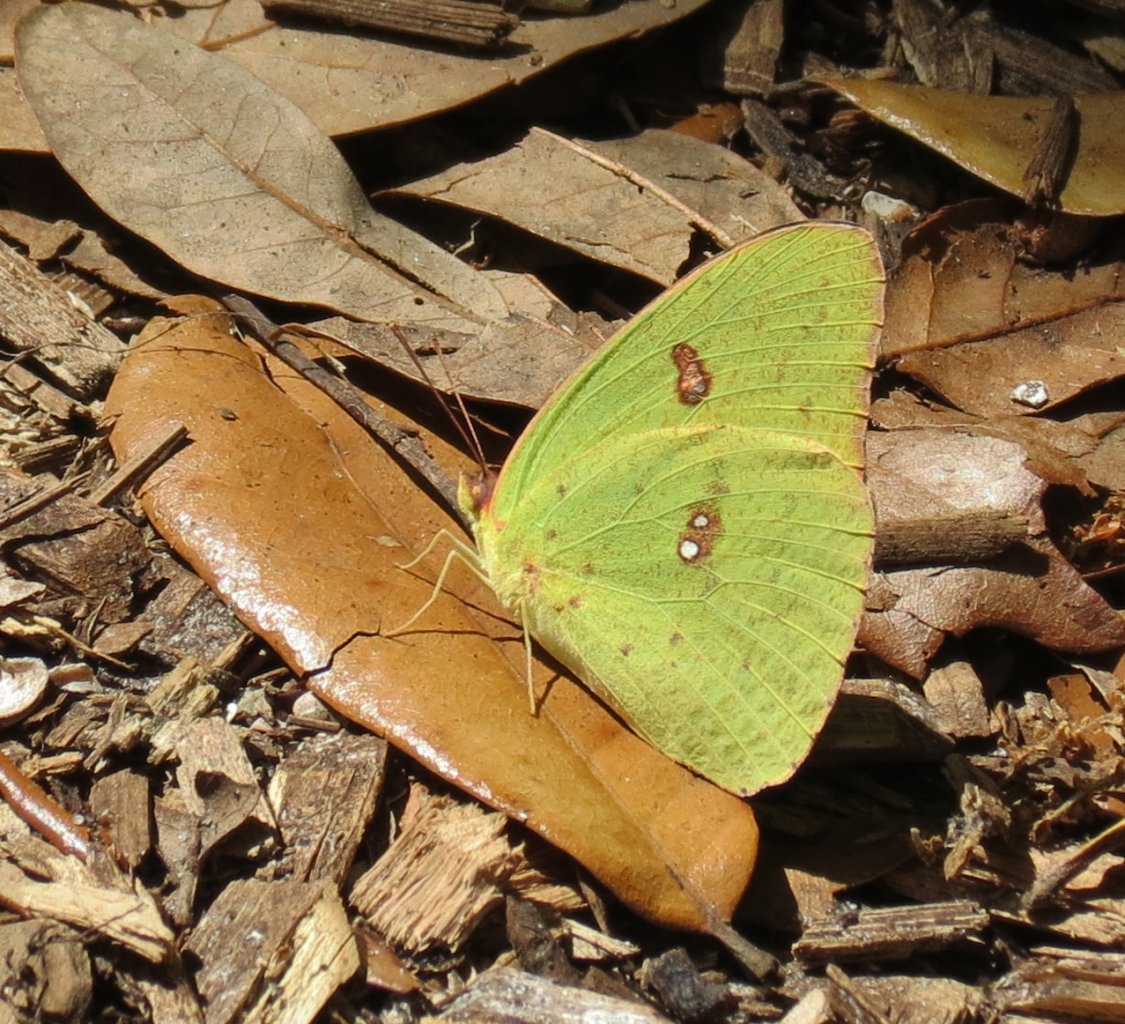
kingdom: Animalia
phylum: Arthropoda
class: Insecta
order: Lepidoptera
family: Pieridae
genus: Phoebis
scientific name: Phoebis sennae
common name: Cloudless Sulphur
